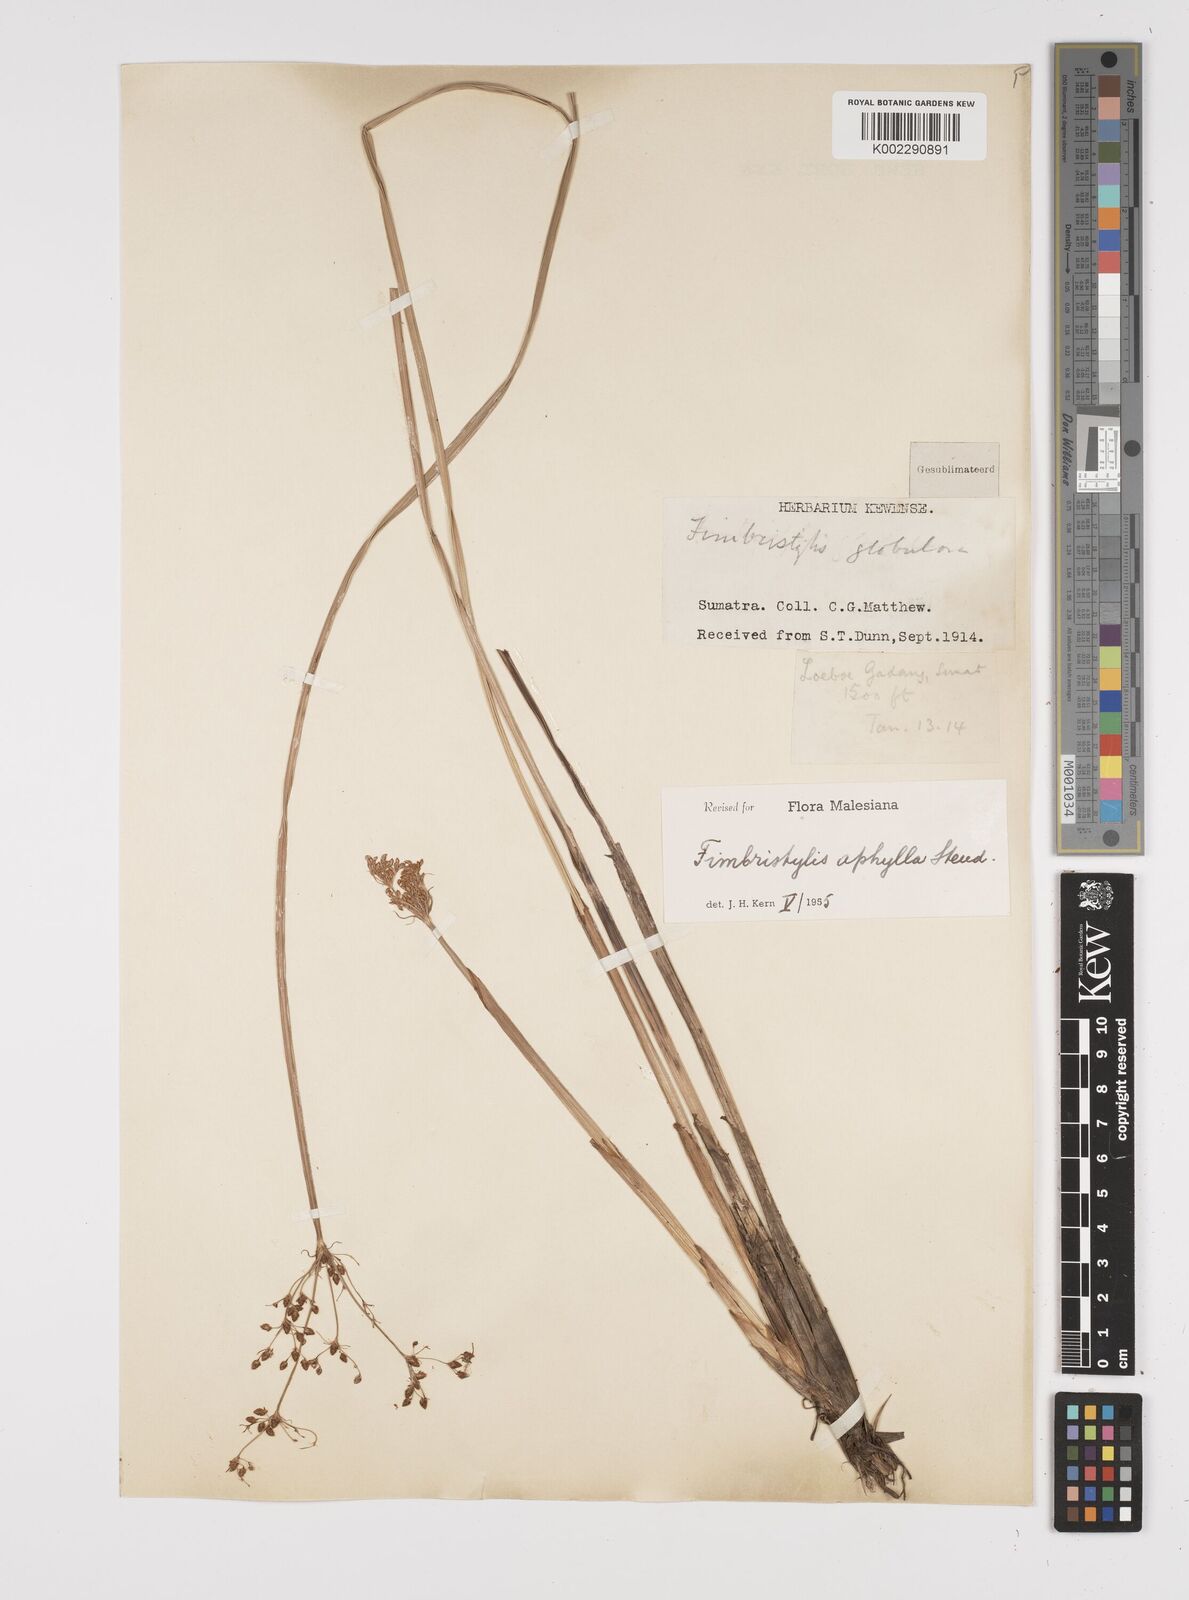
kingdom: Plantae
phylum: Tracheophyta
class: Liliopsida
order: Poales
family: Cyperaceae
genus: Fimbristylis
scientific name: Fimbristylis aphylla
